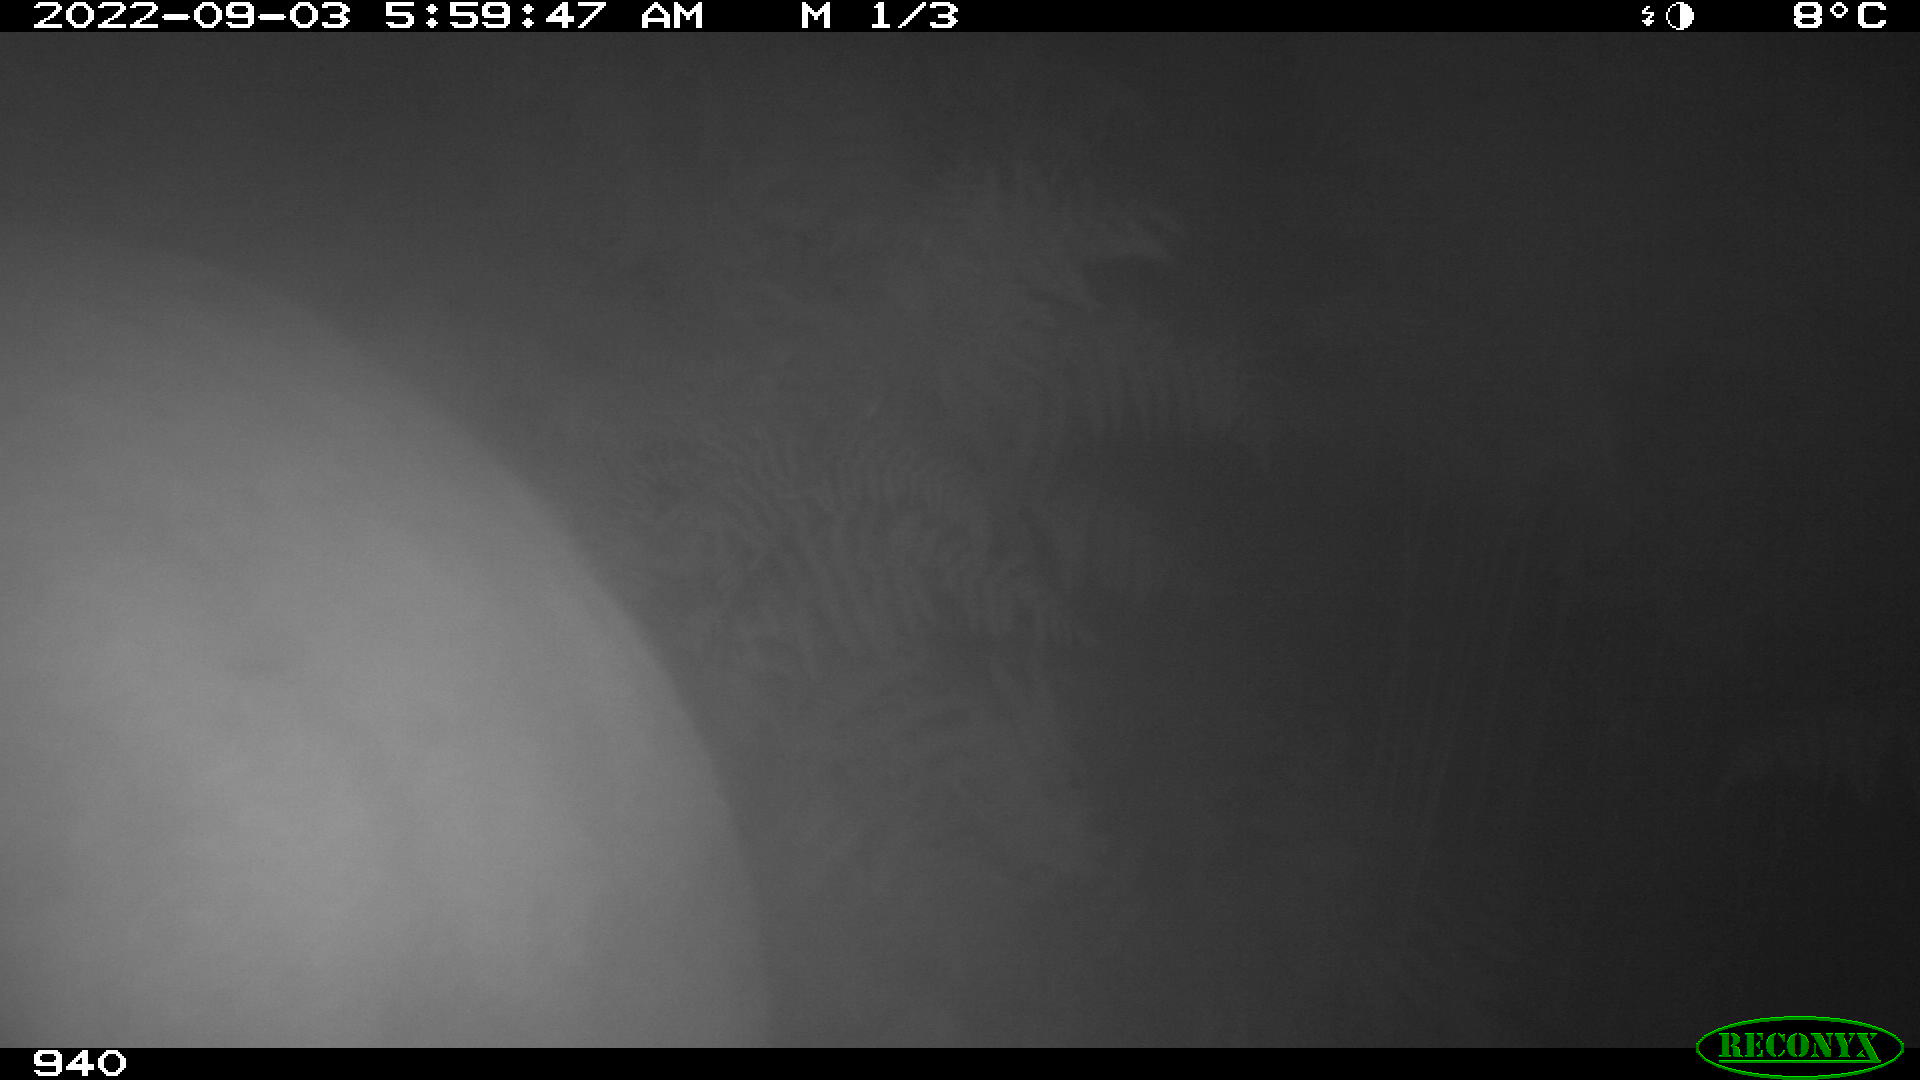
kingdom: Animalia
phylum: Chordata
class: Mammalia
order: Perissodactyla
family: Equidae
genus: Equus
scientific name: Equus caballus
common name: Horse
